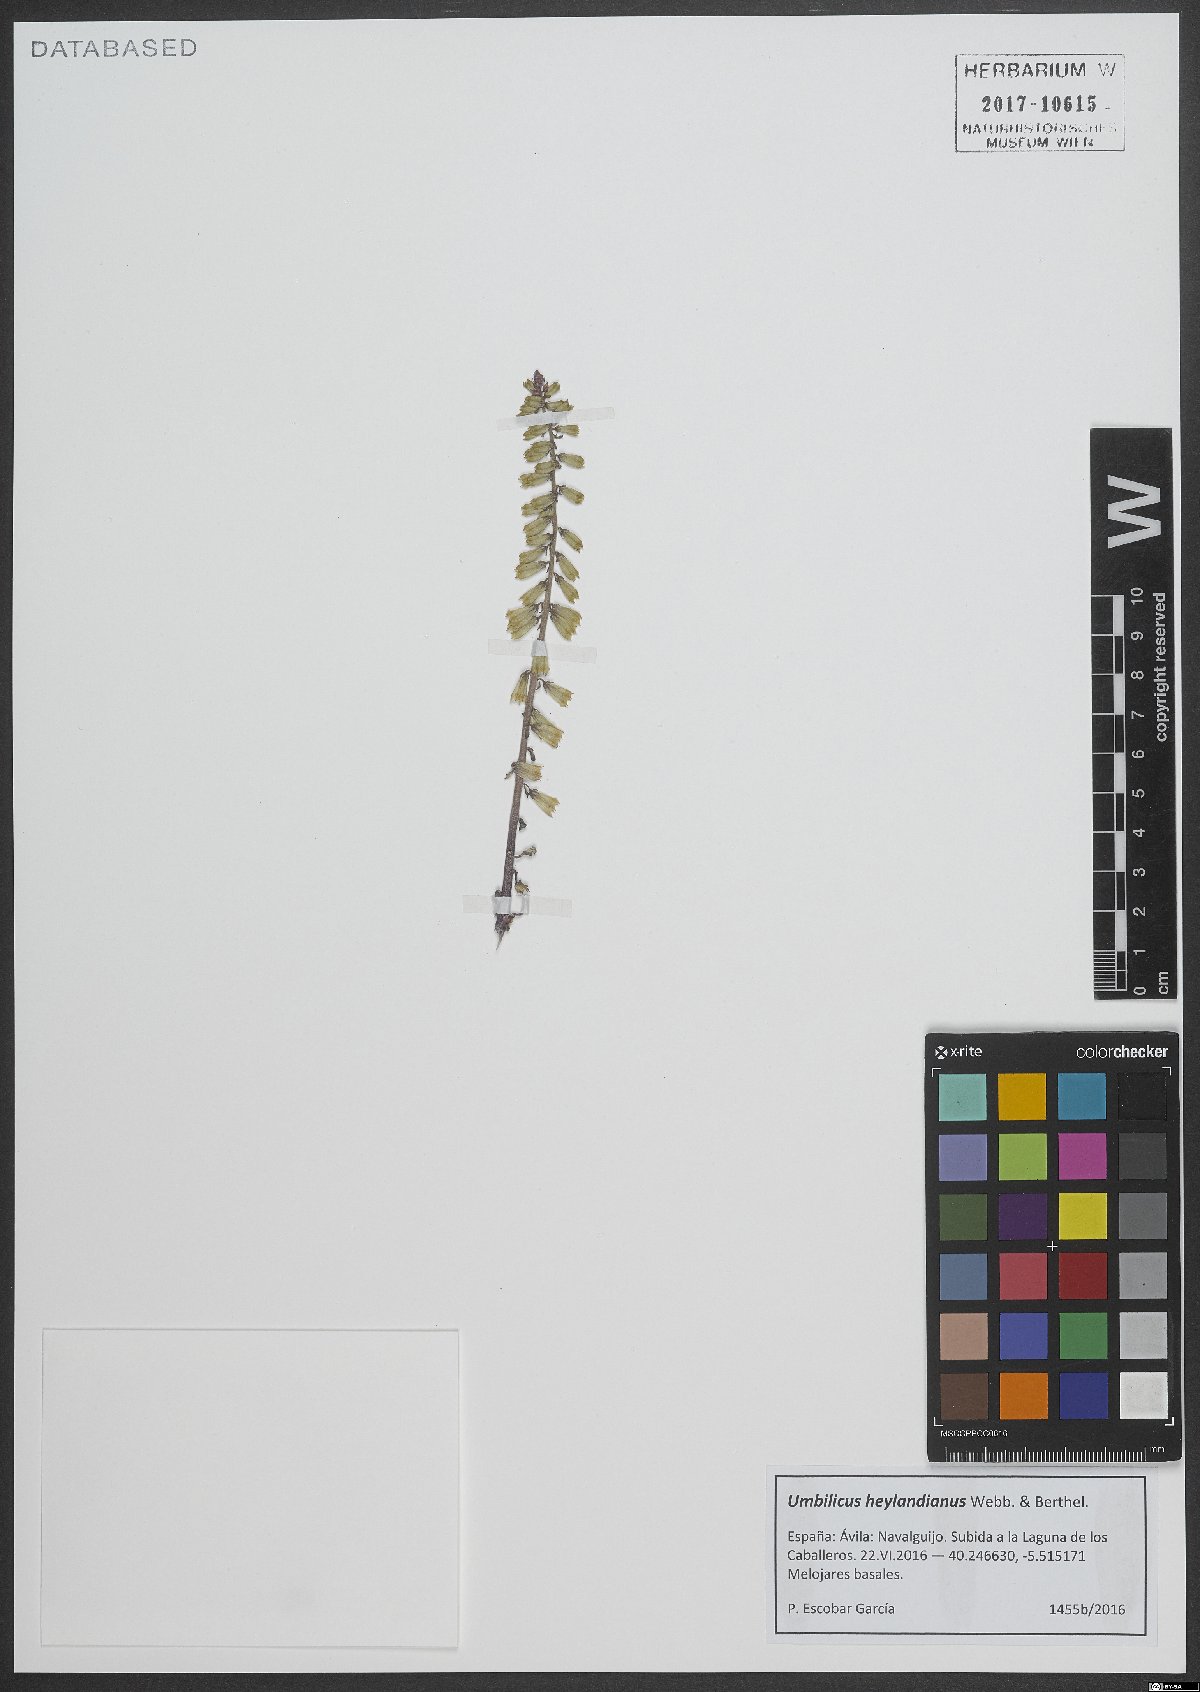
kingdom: Plantae
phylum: Tracheophyta
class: Magnoliopsida
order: Saxifragales
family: Crassulaceae
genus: Umbilicus
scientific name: Umbilicus heylandianus
